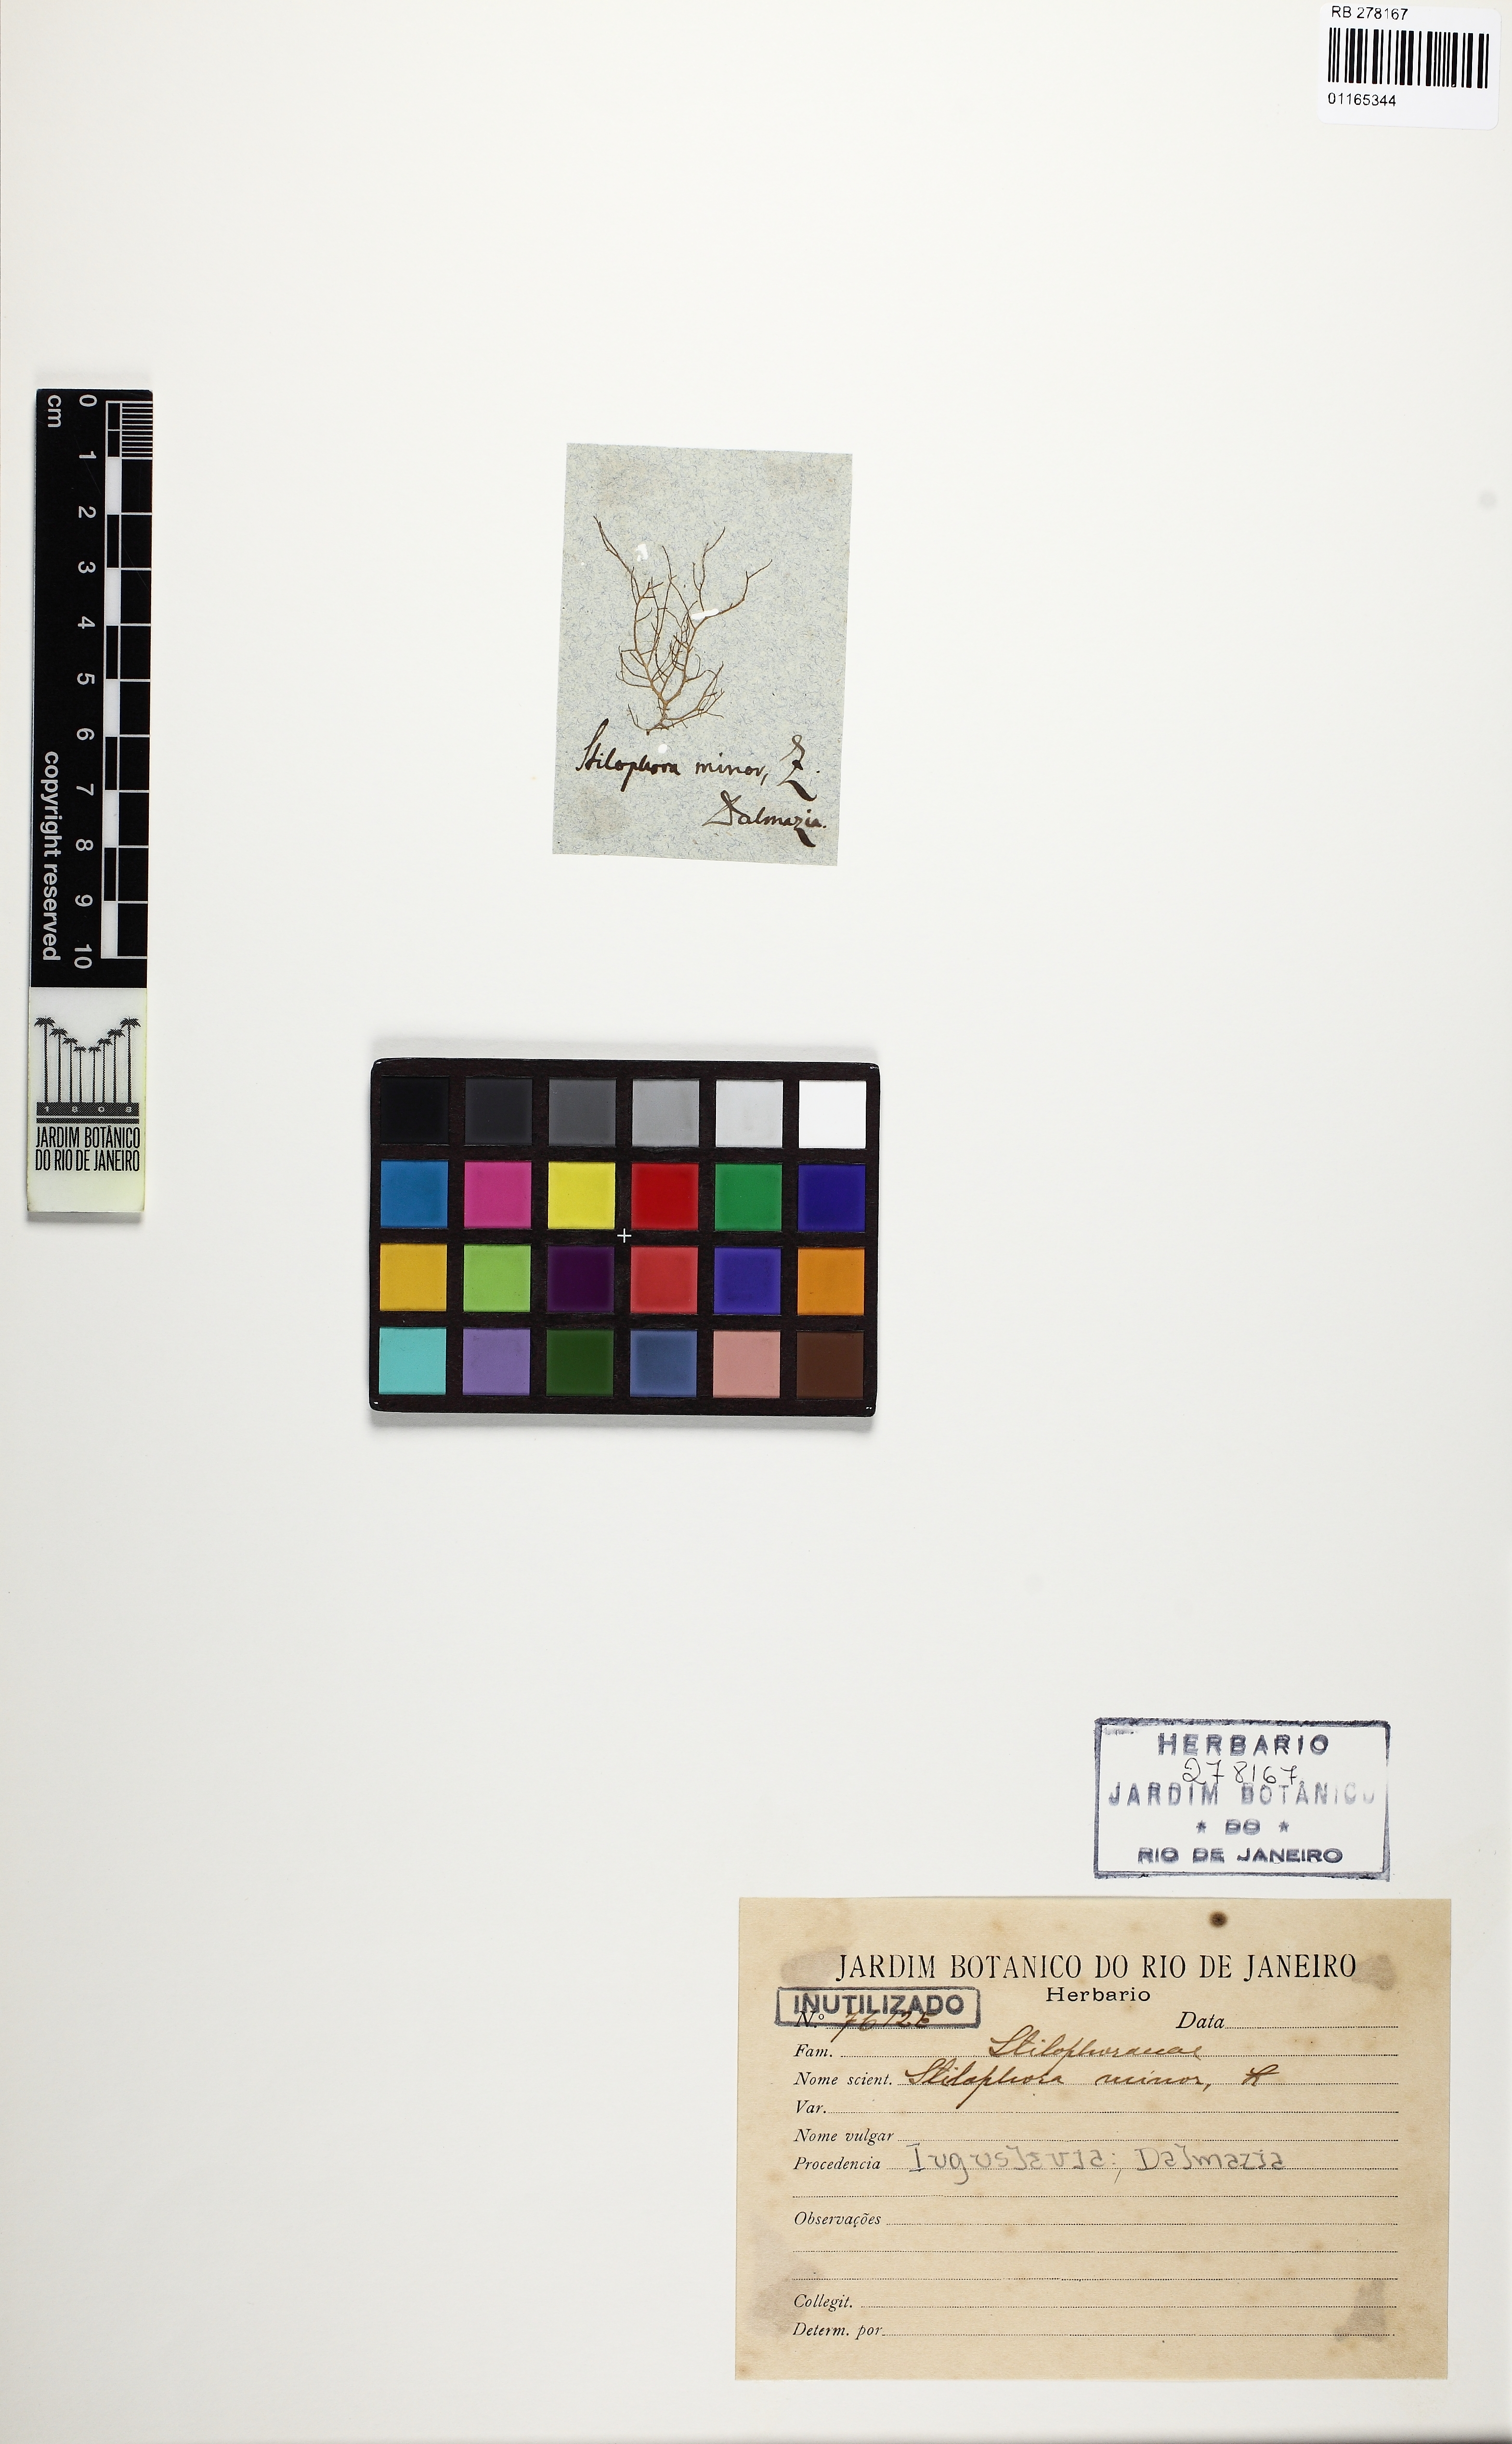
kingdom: Chromista
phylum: Ochrophyta
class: Phaeophyceae
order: Ectocarpales
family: Chordariaceae
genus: Stilophora
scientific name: Stilophora
